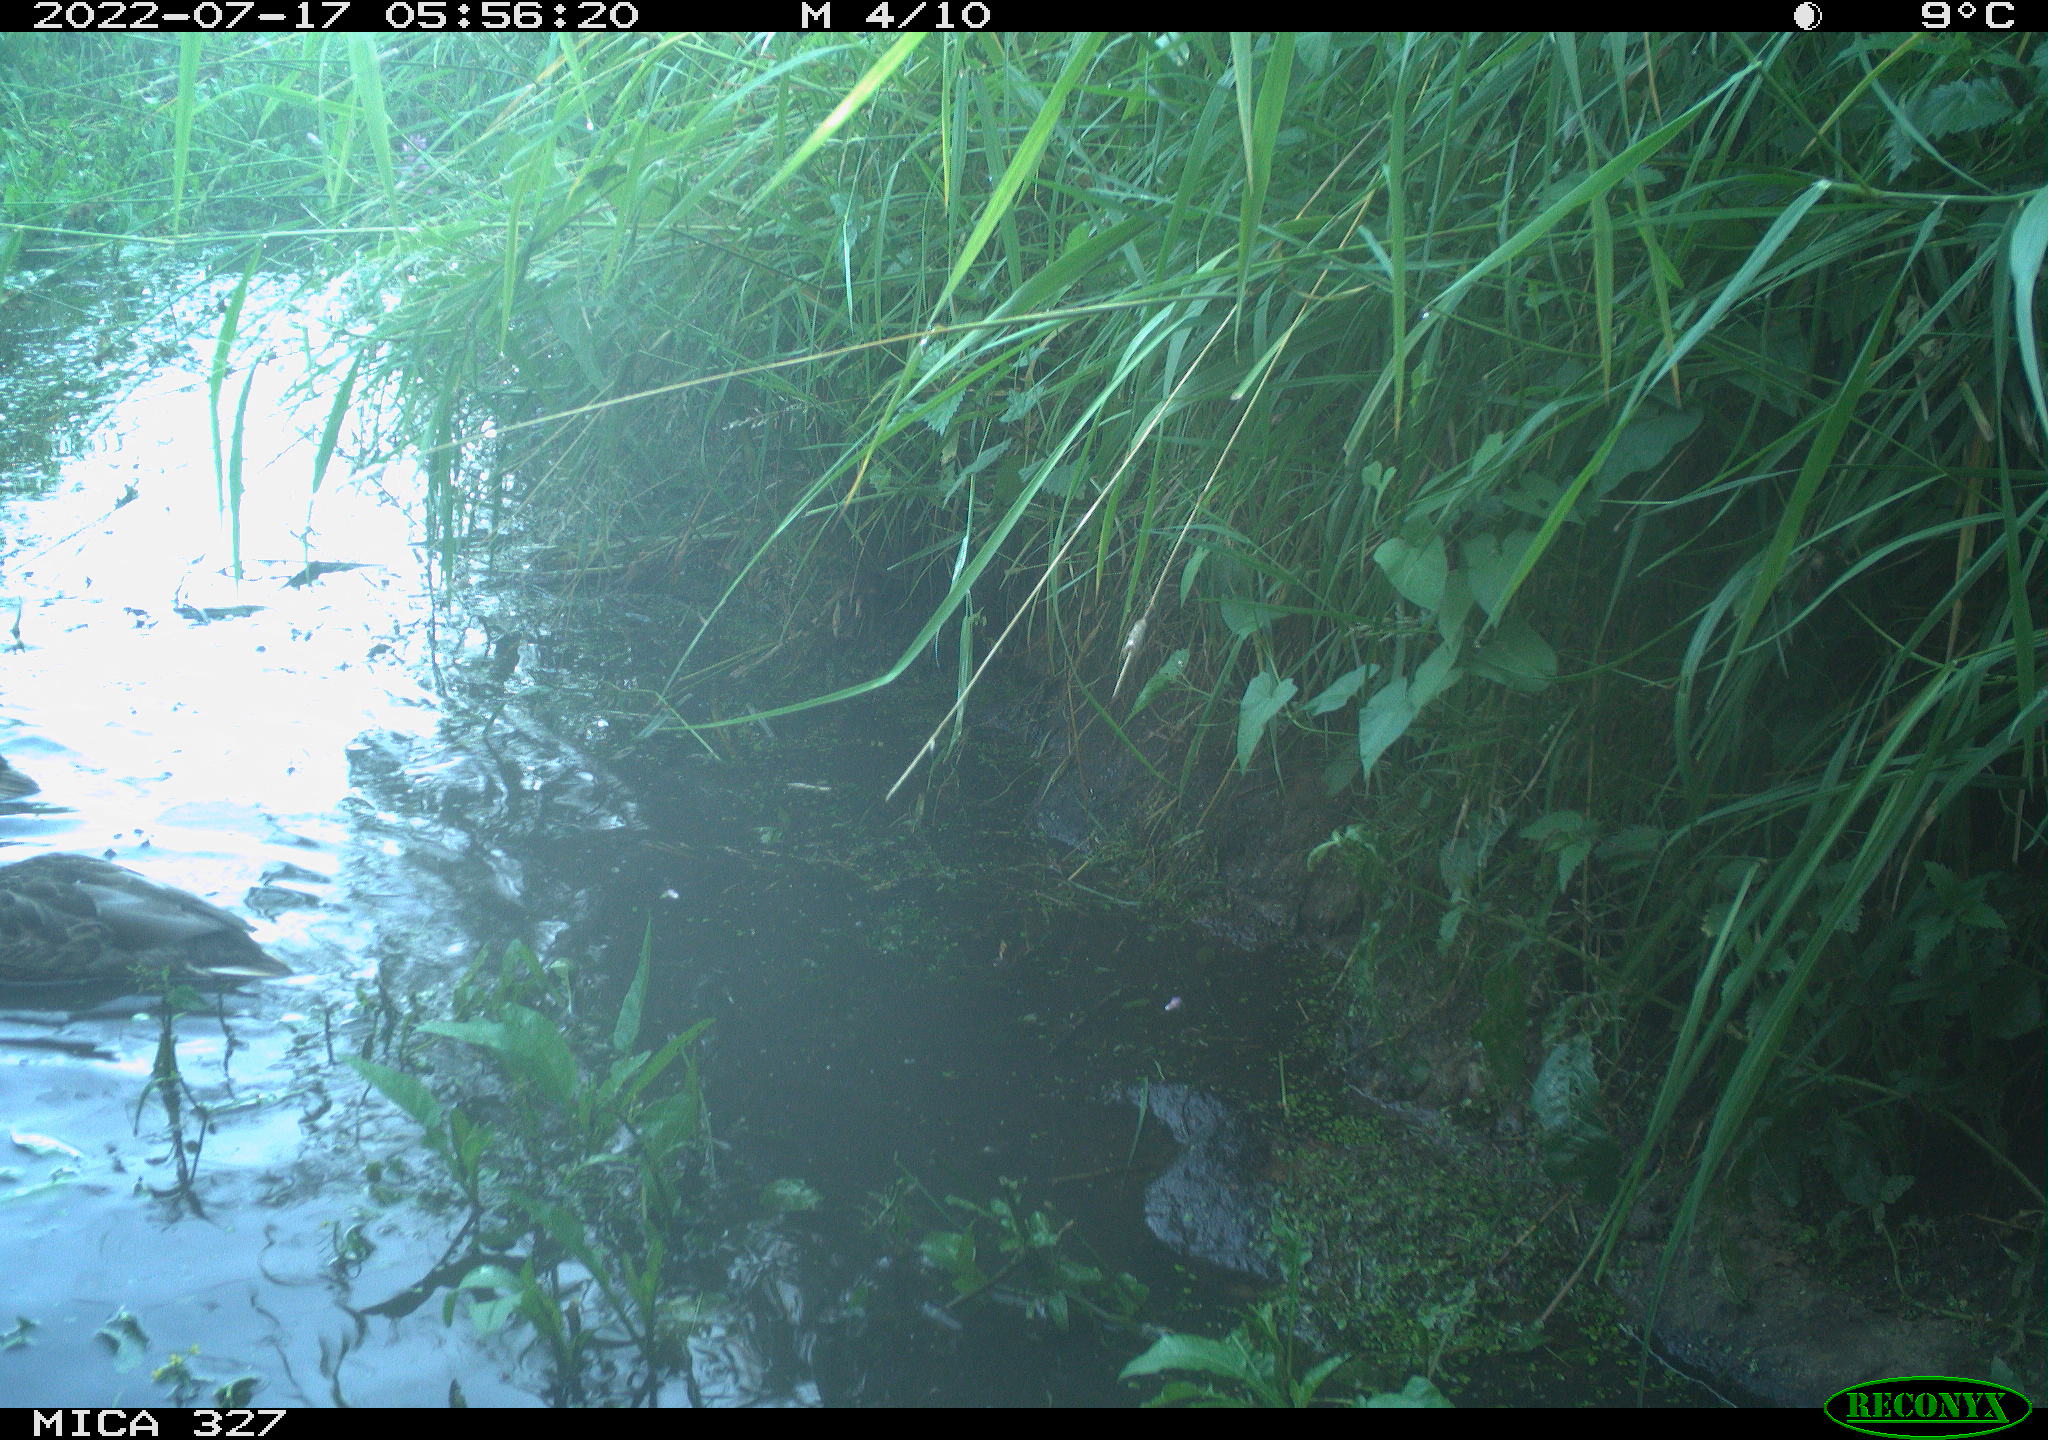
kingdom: Animalia
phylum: Chordata
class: Aves
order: Anseriformes
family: Anatidae
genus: Anas
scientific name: Anas
